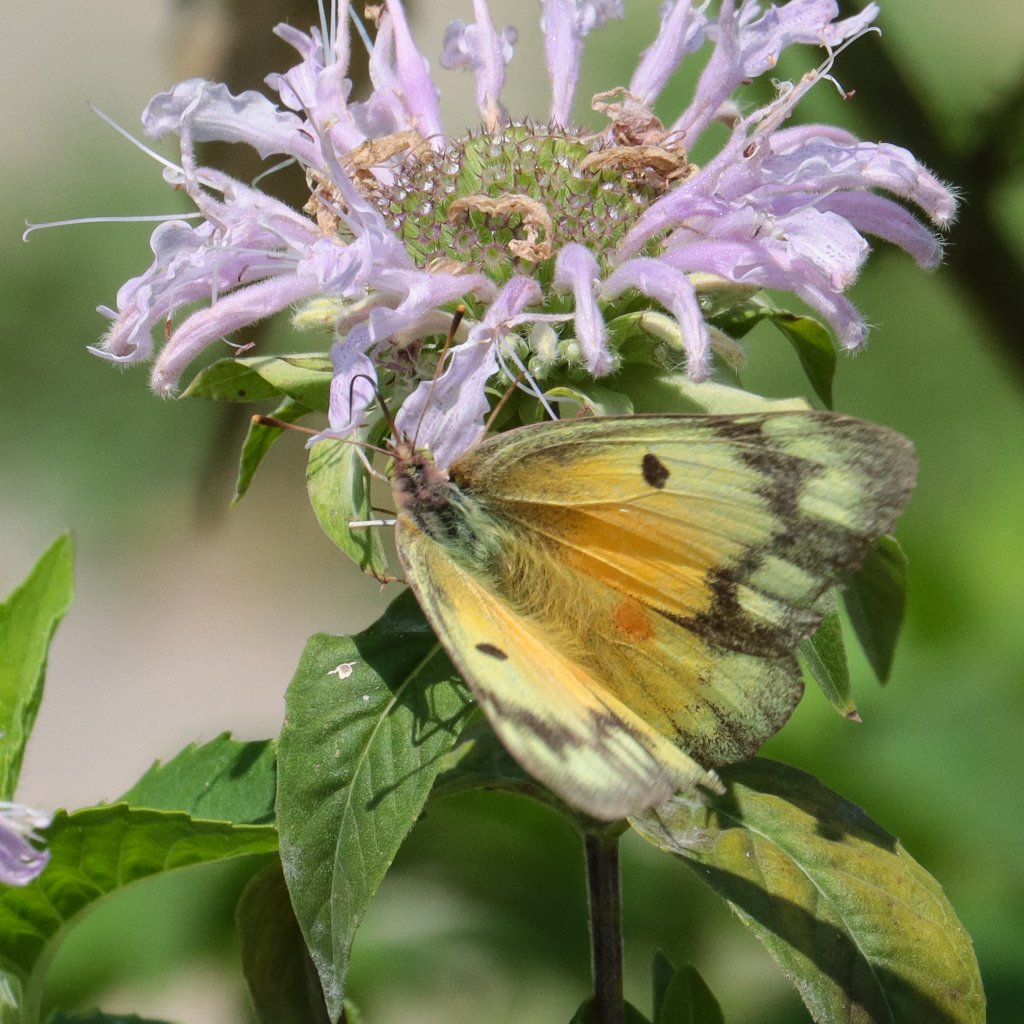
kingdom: Animalia
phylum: Arthropoda
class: Insecta
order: Lepidoptera
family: Pieridae
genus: Colias
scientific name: Colias eurytheme
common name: Orange Sulphur
